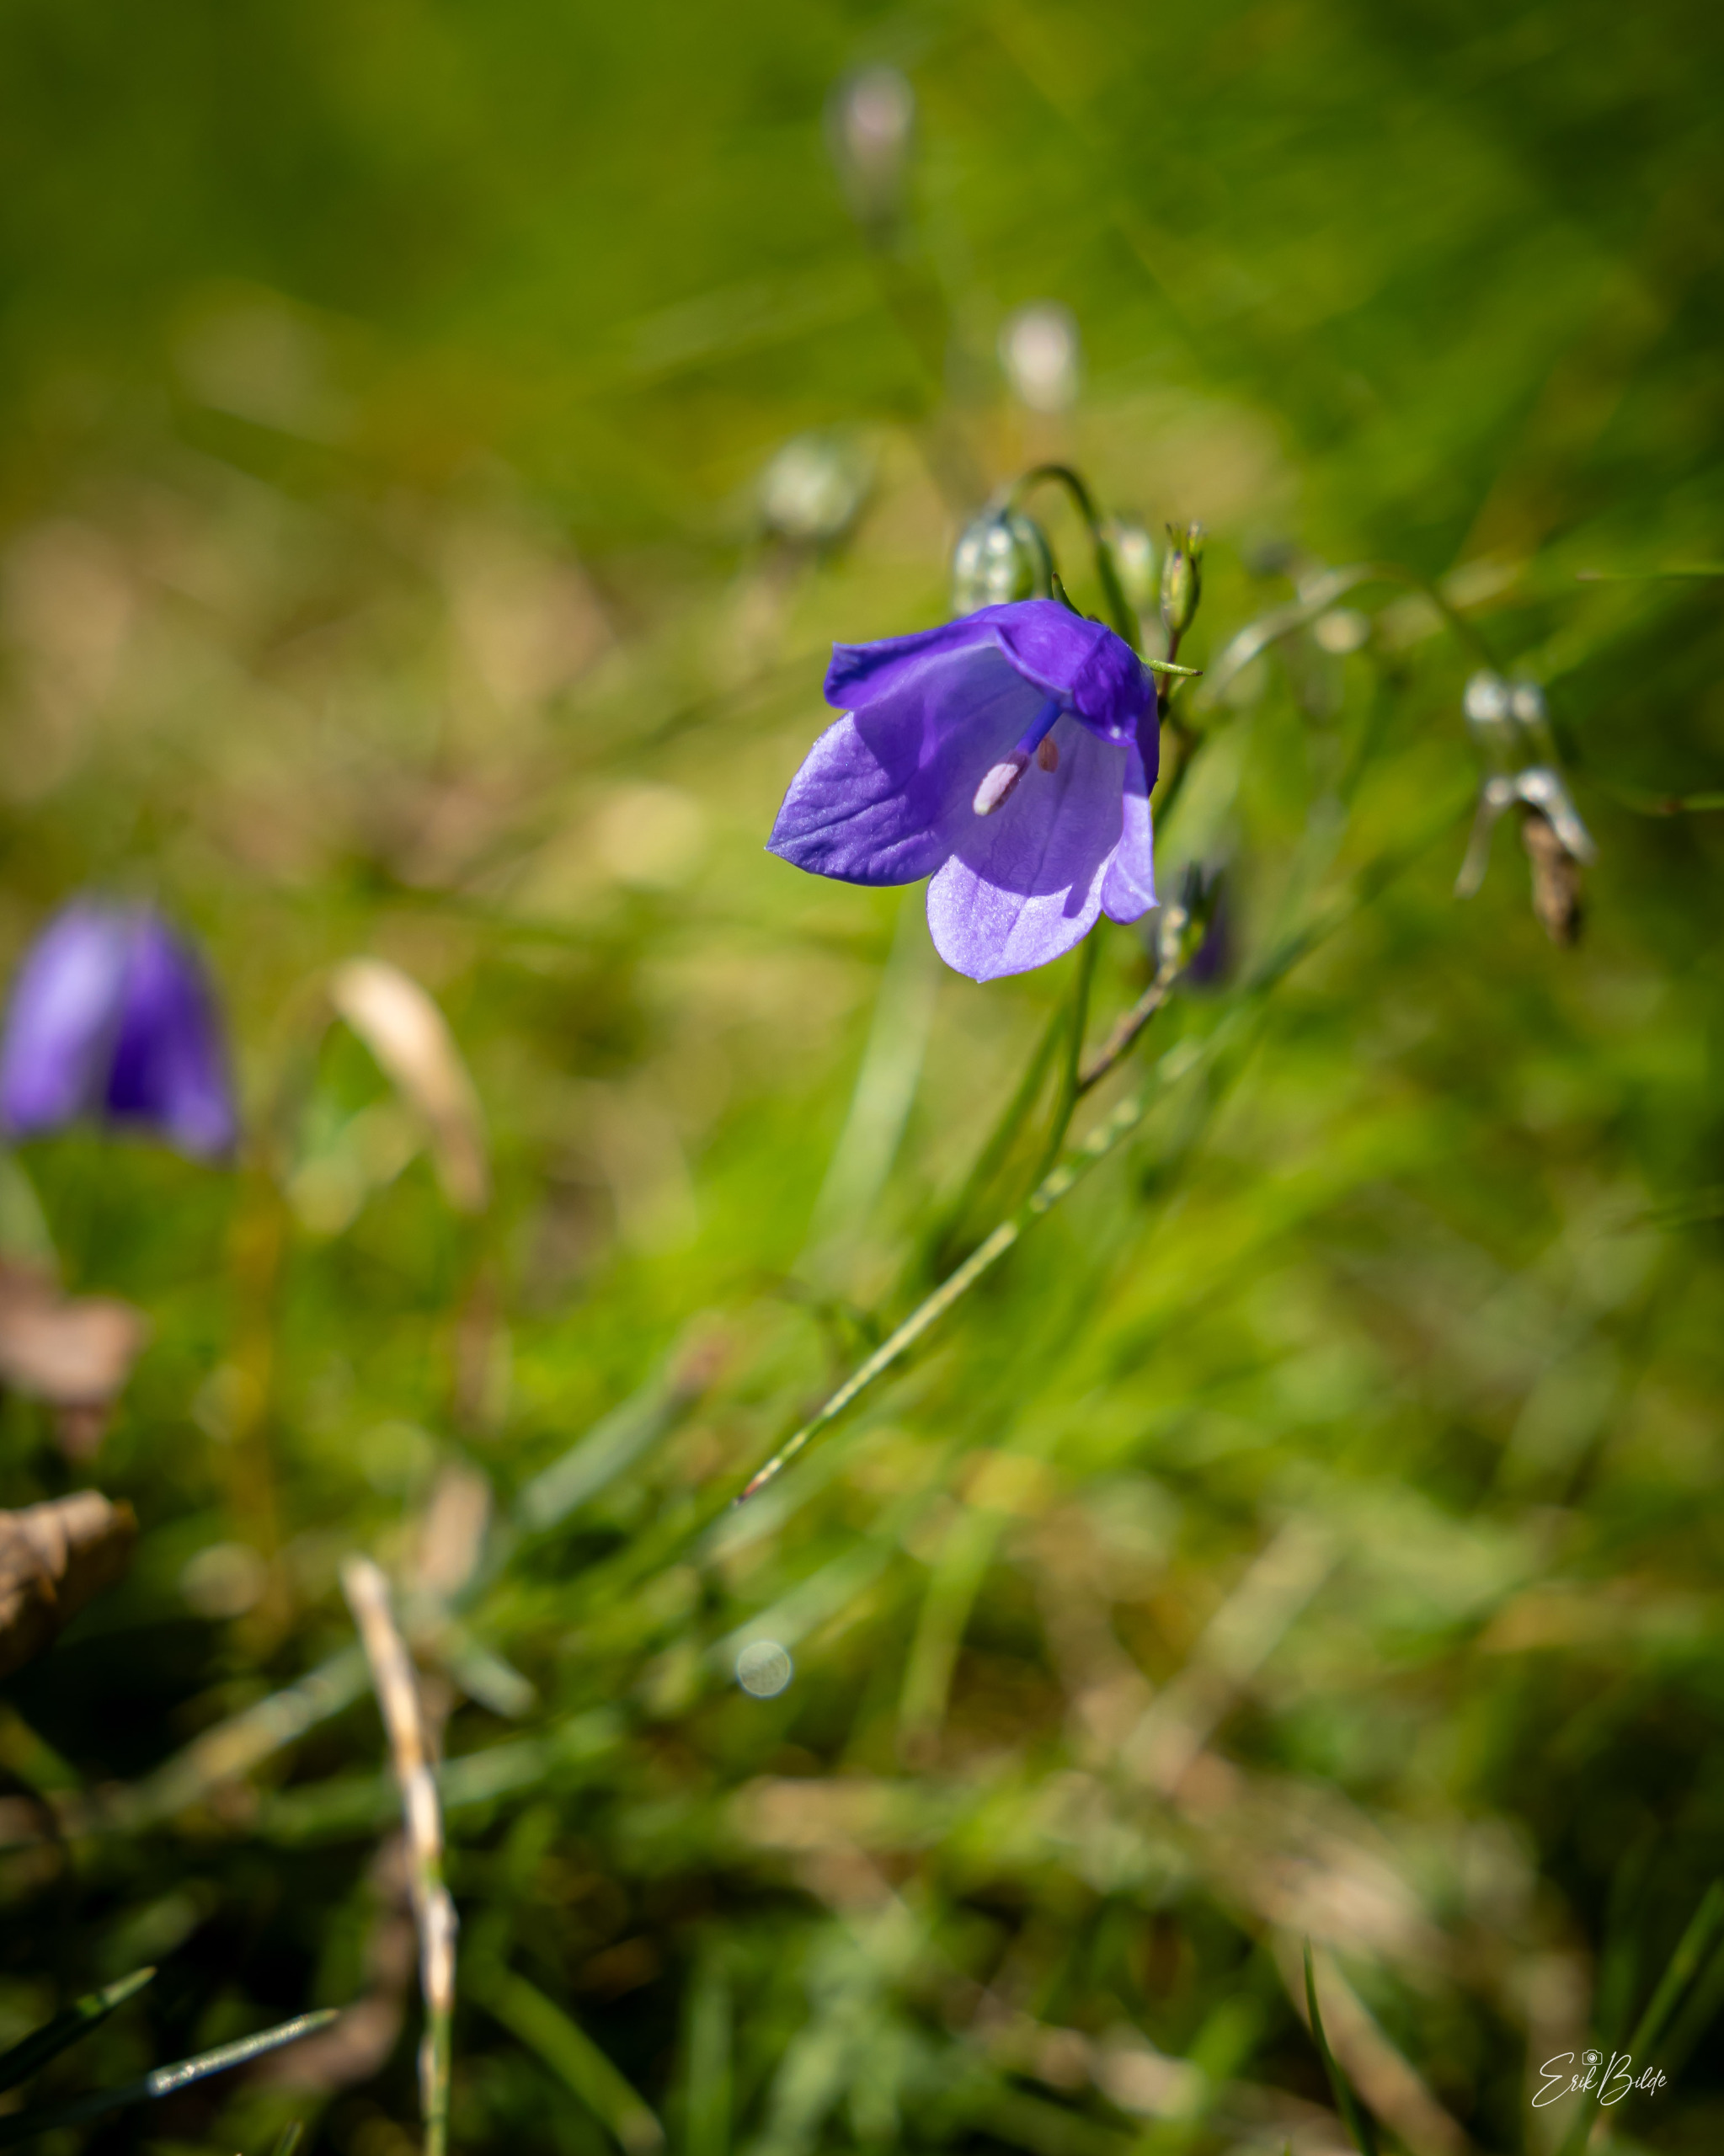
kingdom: Plantae
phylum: Tracheophyta
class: Magnoliopsida
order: Asterales
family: Campanulaceae
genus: Campanula
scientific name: Campanula rotundifolia
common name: Liden klokke
